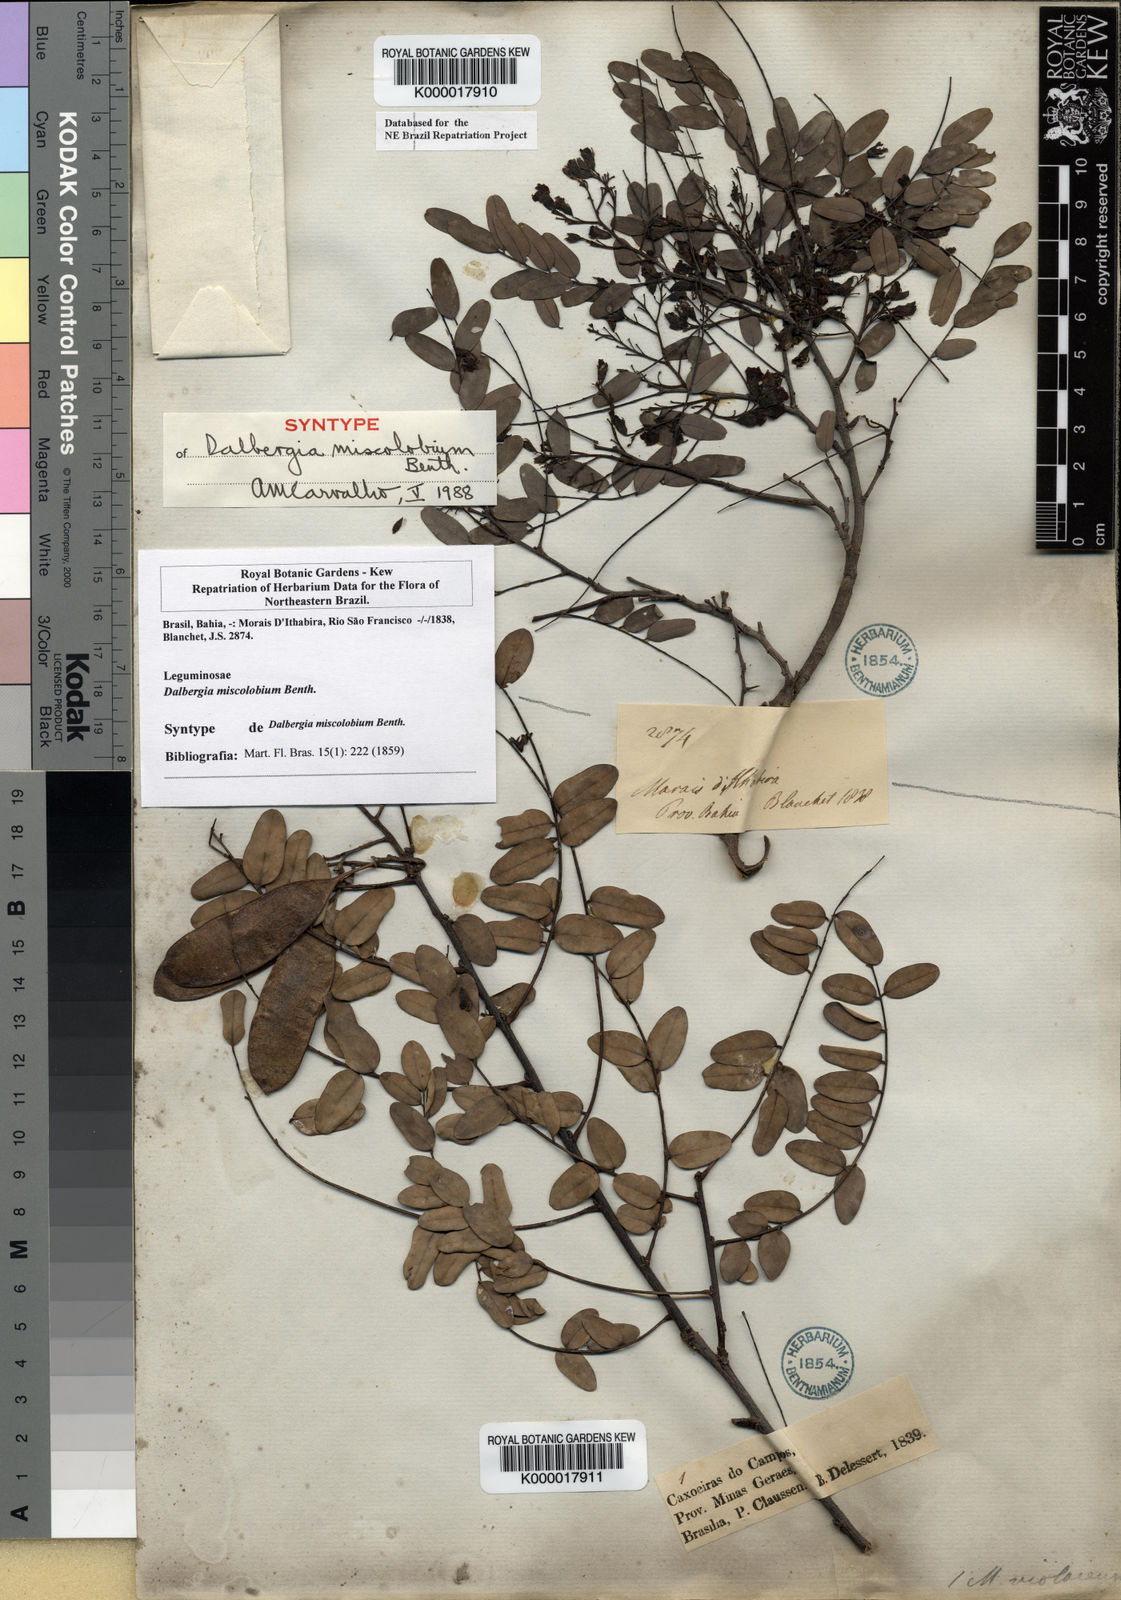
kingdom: Plantae
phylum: Tracheophyta
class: Magnoliopsida
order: Fabales
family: Fabaceae
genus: Dalbergia
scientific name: Dalbergia miscolobium
